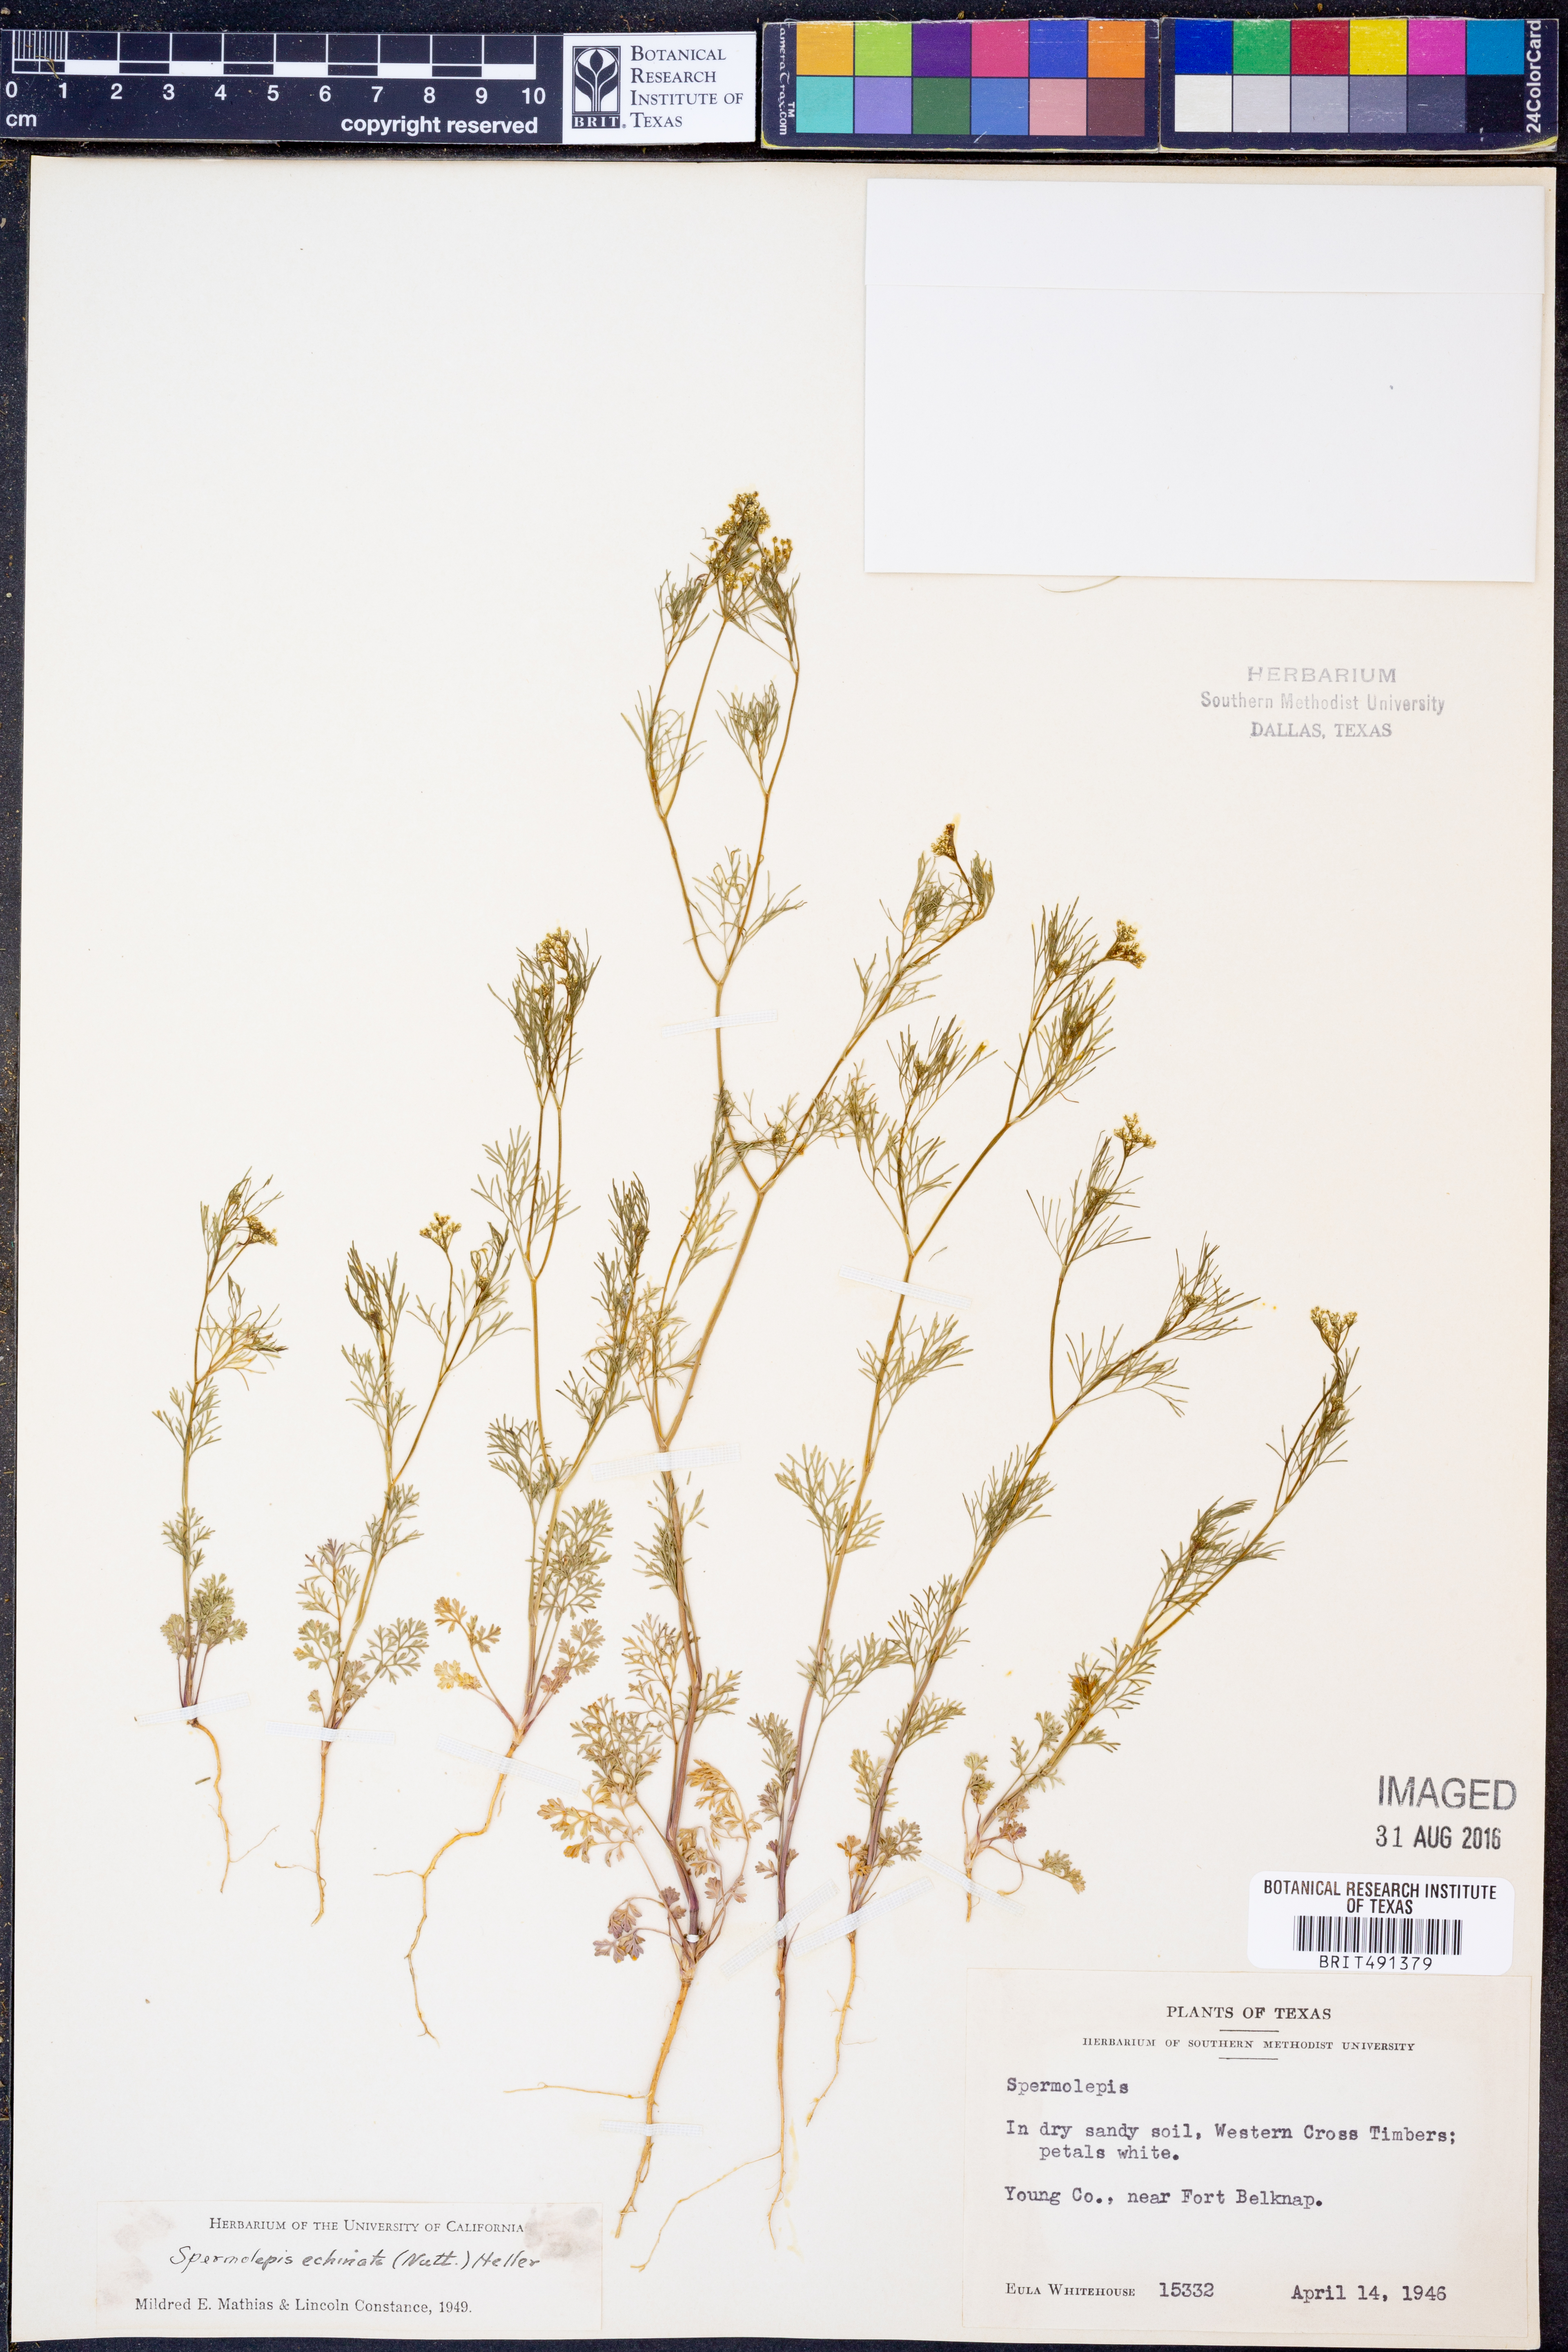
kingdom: Plantae
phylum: Tracheophyta
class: Magnoliopsida
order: Apiales
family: Apiaceae
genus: Spermolepis
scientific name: Spermolepis echinata
